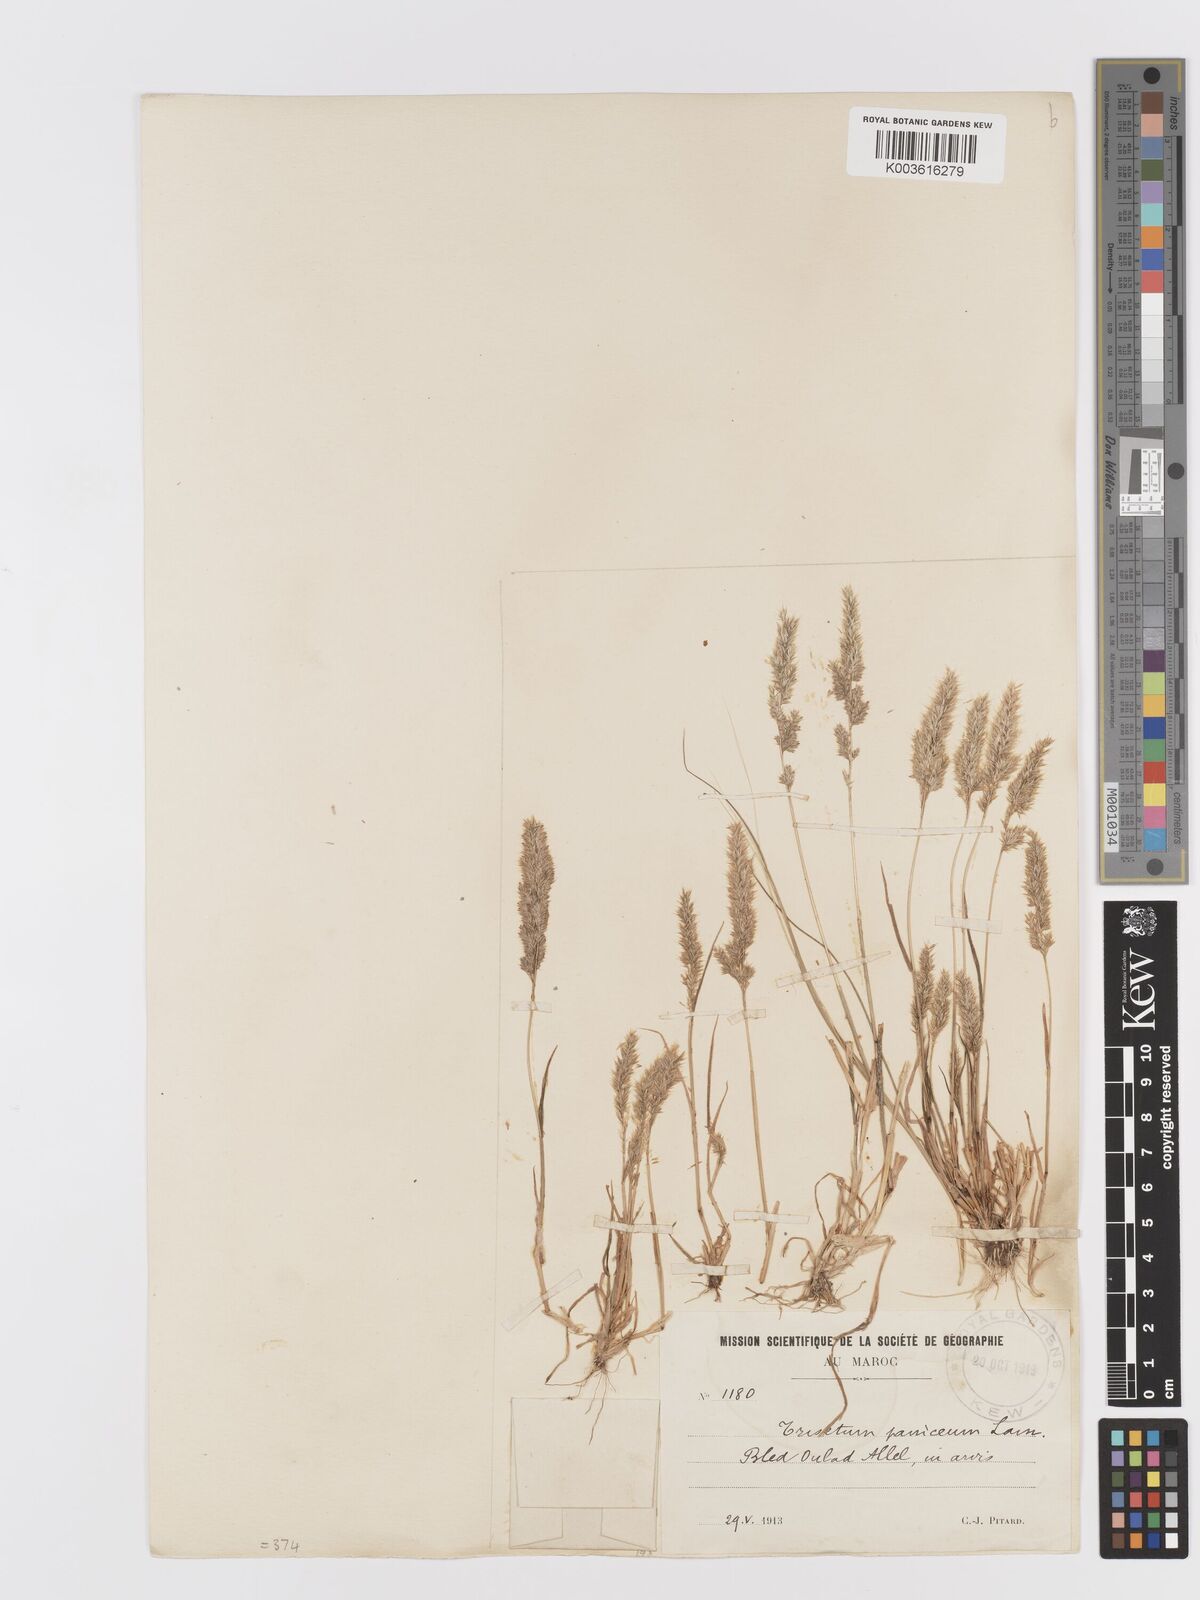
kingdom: Plantae
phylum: Tracheophyta
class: Liliopsida
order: Poales
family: Poaceae
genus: Trisetaria
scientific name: Trisetaria panicea
